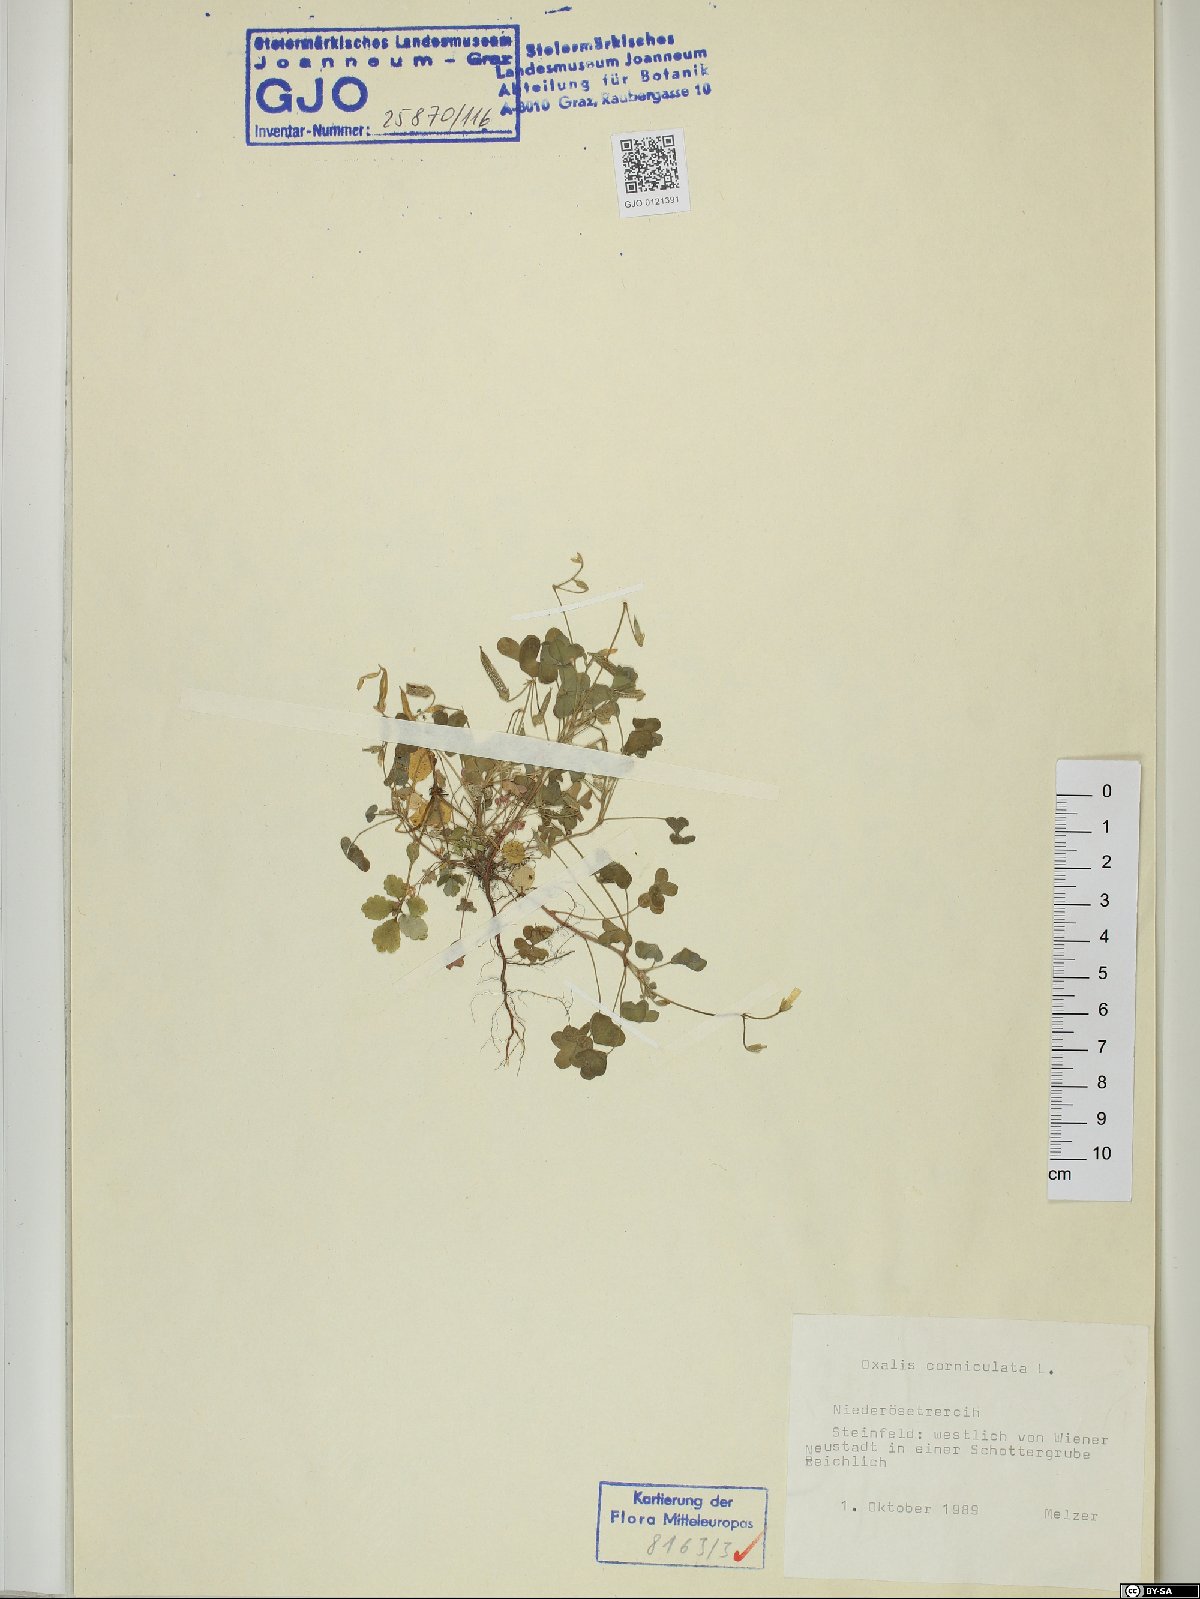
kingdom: Plantae
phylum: Tracheophyta
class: Magnoliopsida
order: Oxalidales
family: Oxalidaceae
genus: Oxalis
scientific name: Oxalis corniculata
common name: Procumbent yellow-sorrel
